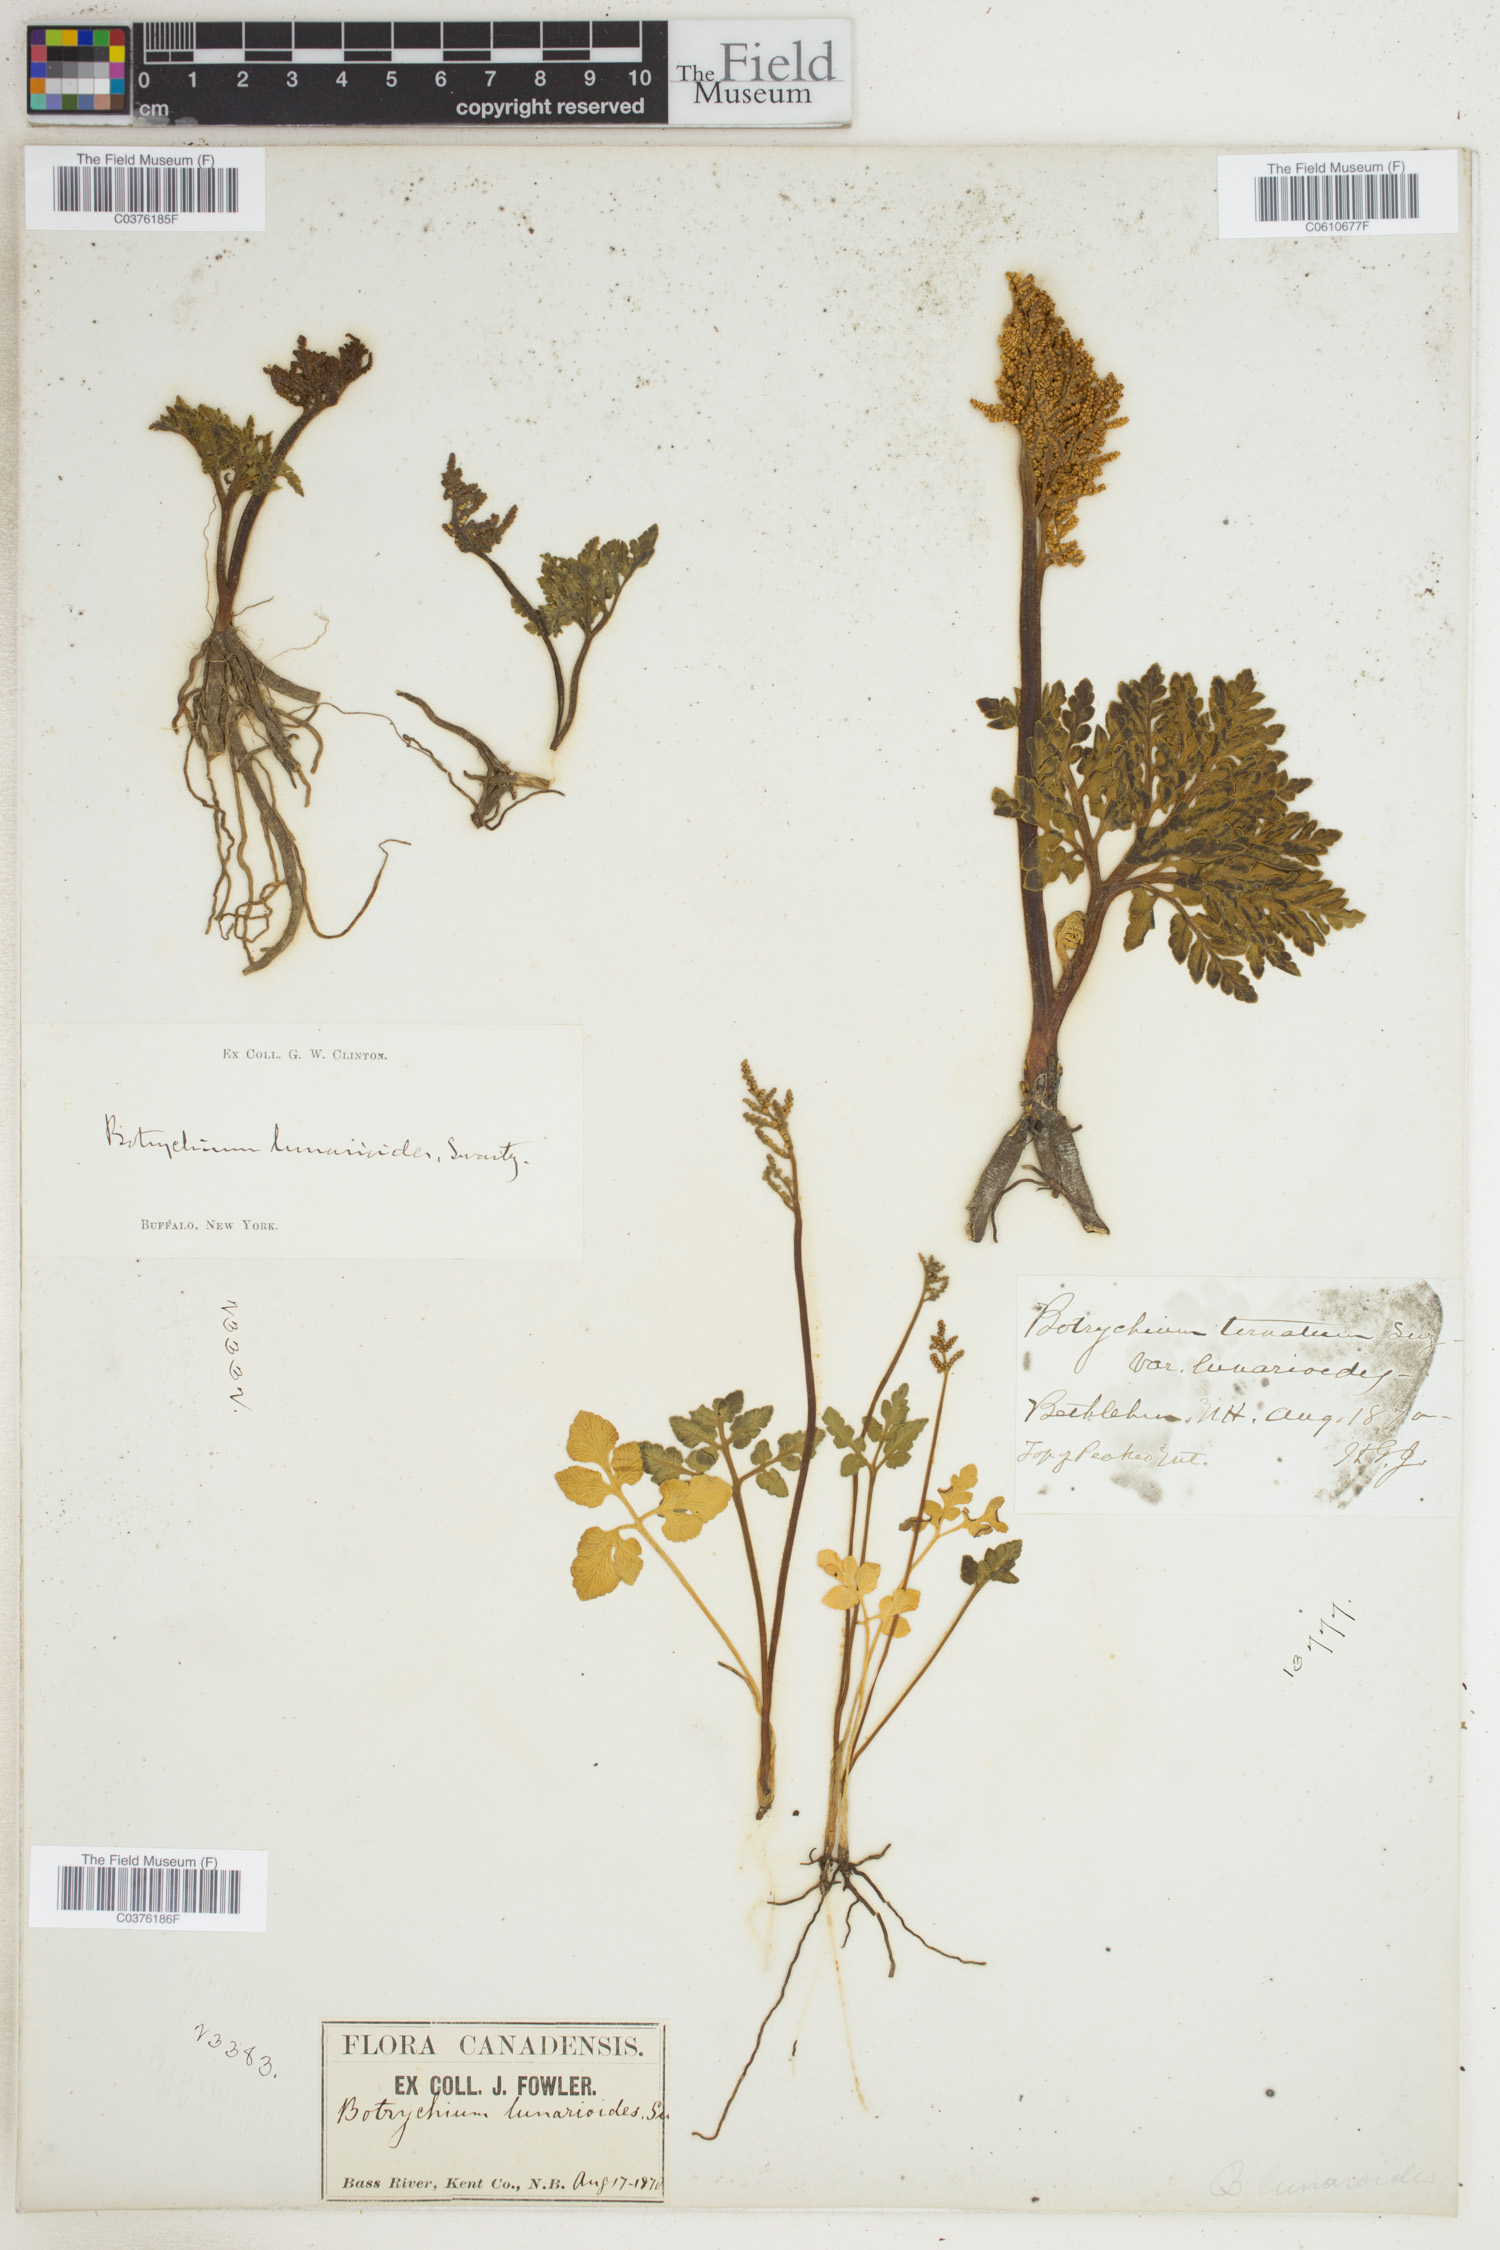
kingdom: Plantae
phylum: Tracheophyta
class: Polypodiopsida
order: Ophioglossales
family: Ophioglossaceae
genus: Sceptridium
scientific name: Sceptridium lunarioides
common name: Prostrate grapefern
